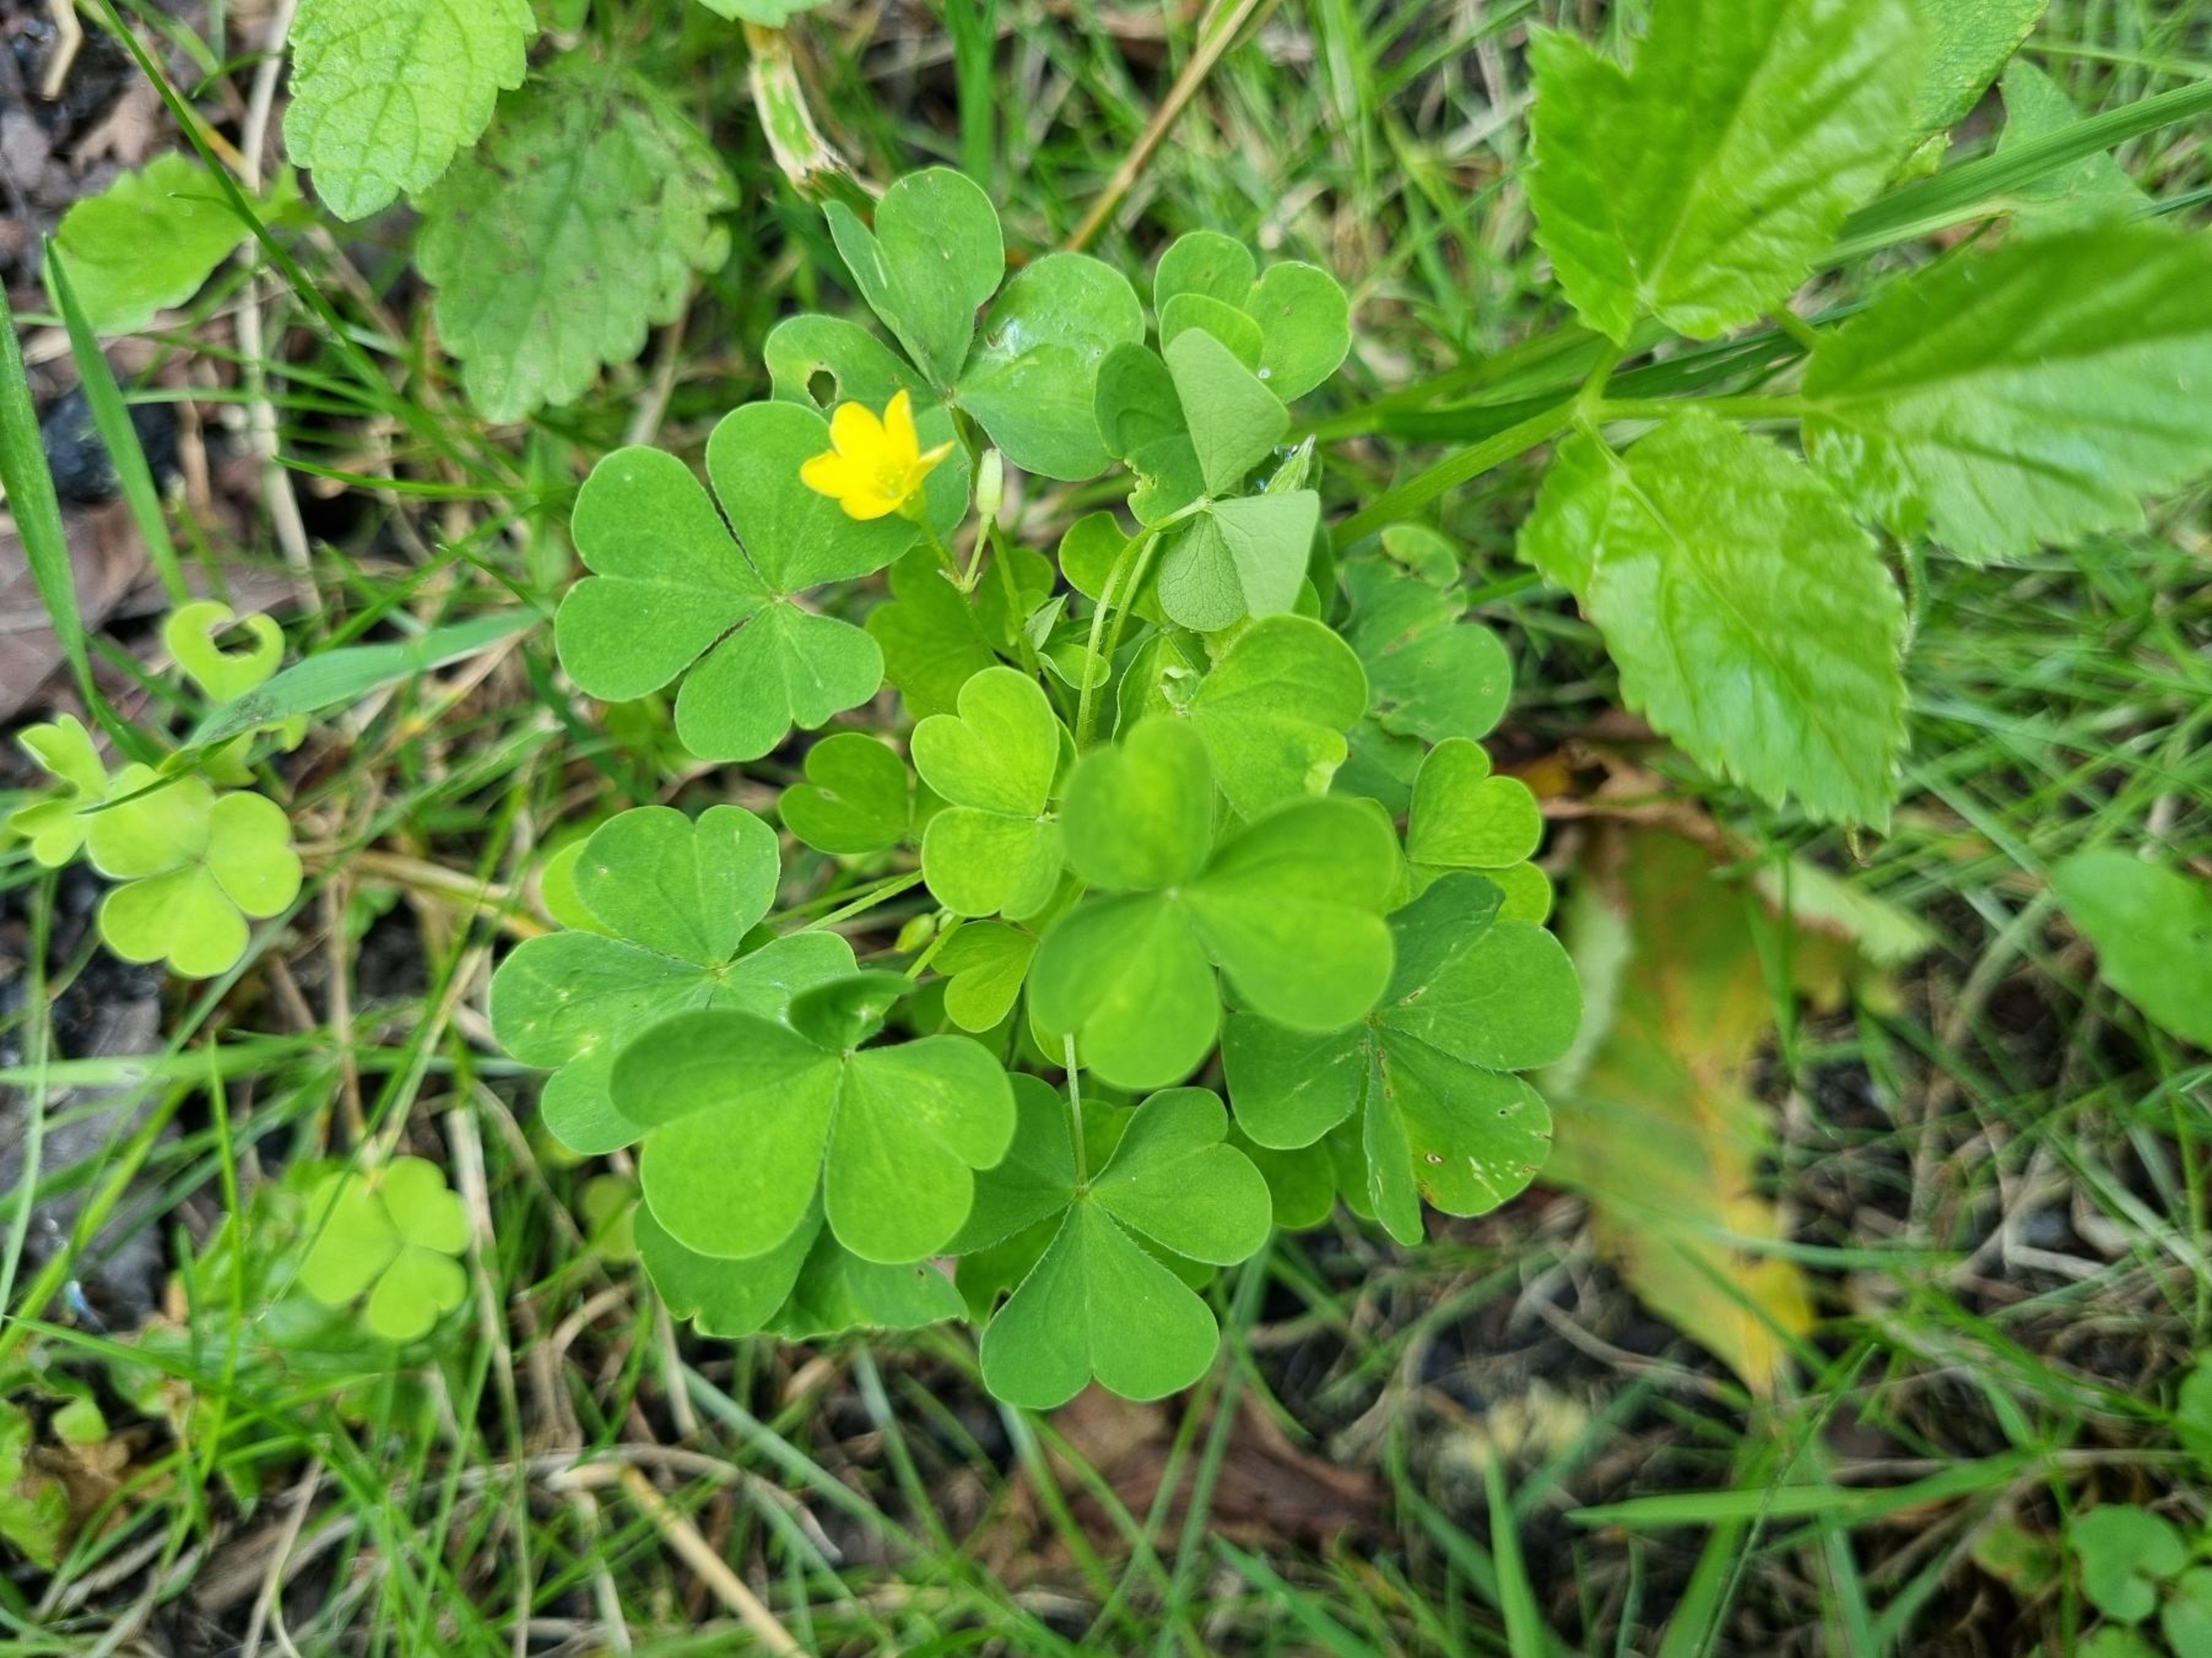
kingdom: Plantae
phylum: Tracheophyta
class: Magnoliopsida
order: Oxalidales
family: Oxalidaceae
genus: Oxalis
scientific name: Oxalis stricta
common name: Rank surkløver
